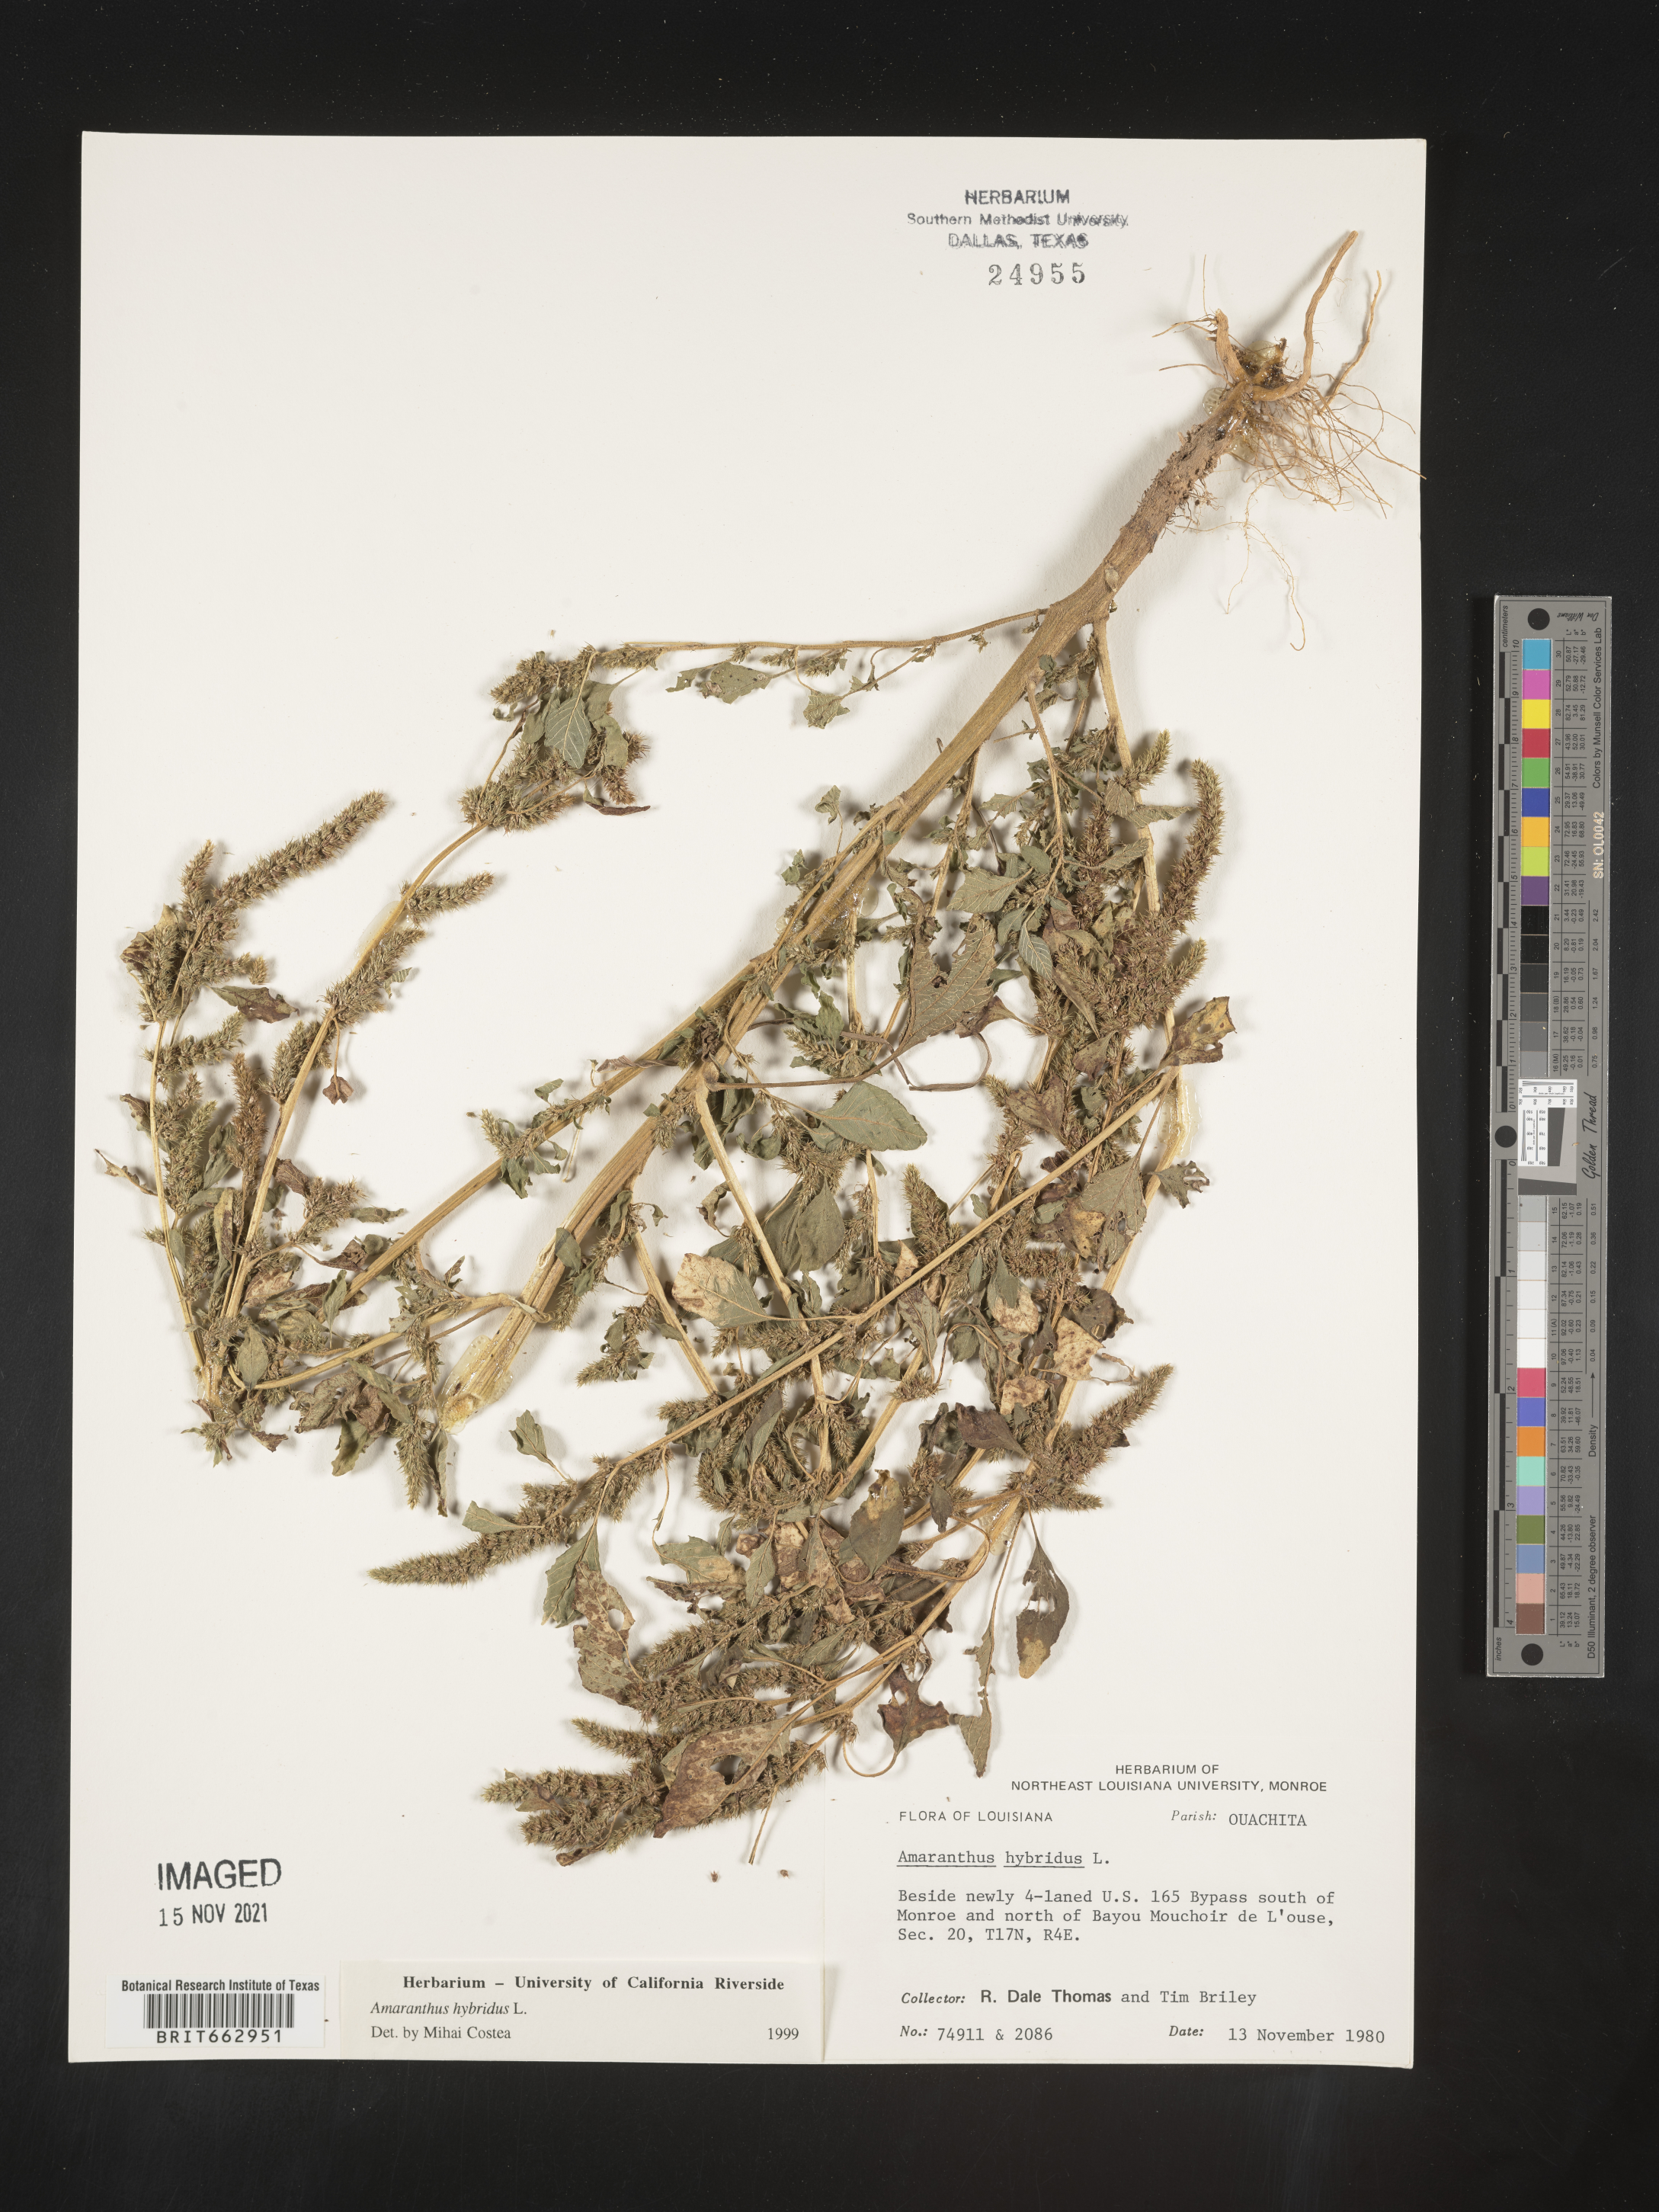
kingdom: Plantae
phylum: Tracheophyta
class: Magnoliopsida
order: Caryophyllales
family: Amaranthaceae
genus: Amaranthus
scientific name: Amaranthus hybridus
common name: Green amaranth
